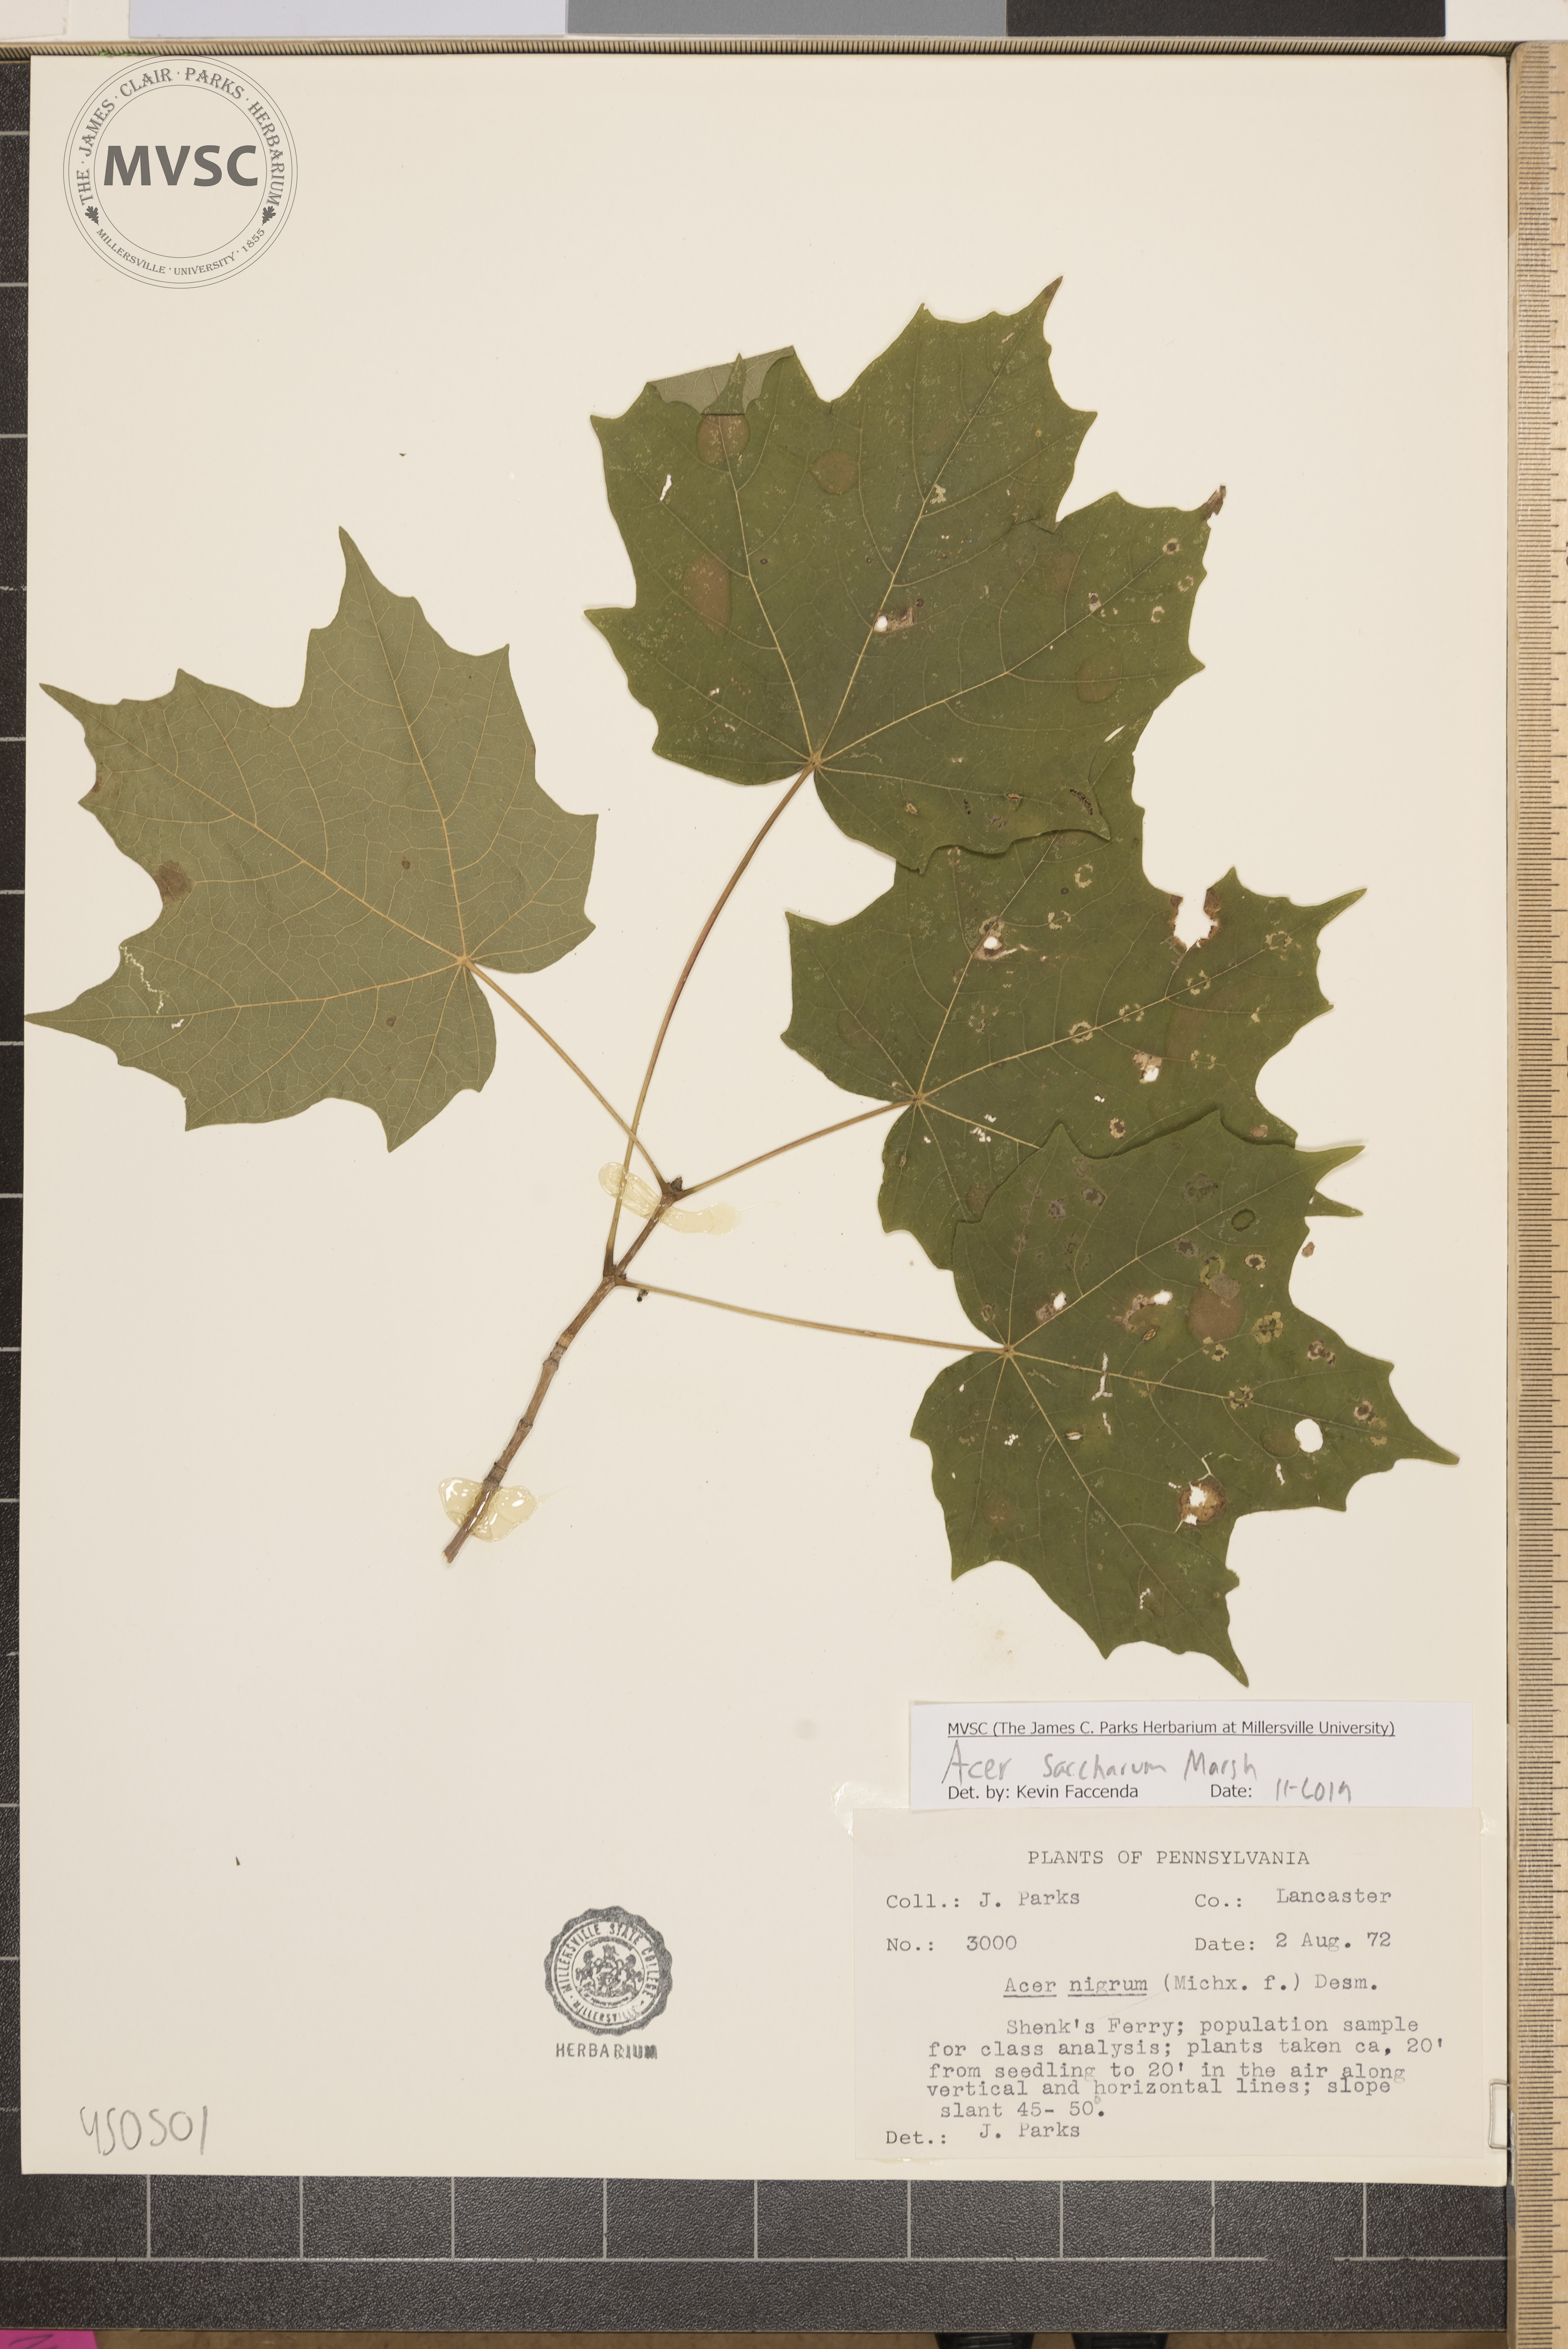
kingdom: Plantae
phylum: Tracheophyta
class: Magnoliopsida
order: Sapindales
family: Sapindaceae
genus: Acer
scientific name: Acer saccharum
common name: Sugar maple
